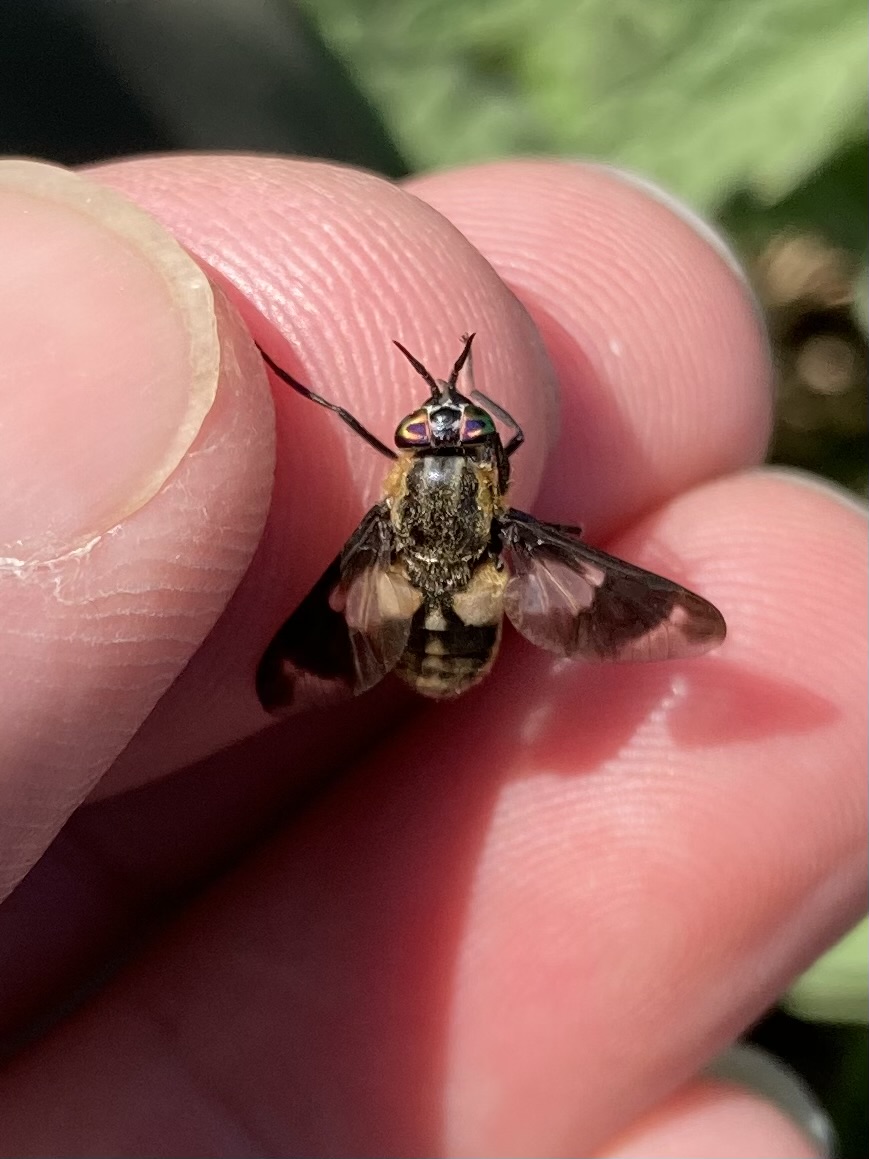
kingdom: Animalia
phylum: Arthropoda
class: Insecta
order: Diptera
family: Tabanidae
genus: Chrysops
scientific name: Chrysops caecutiens
